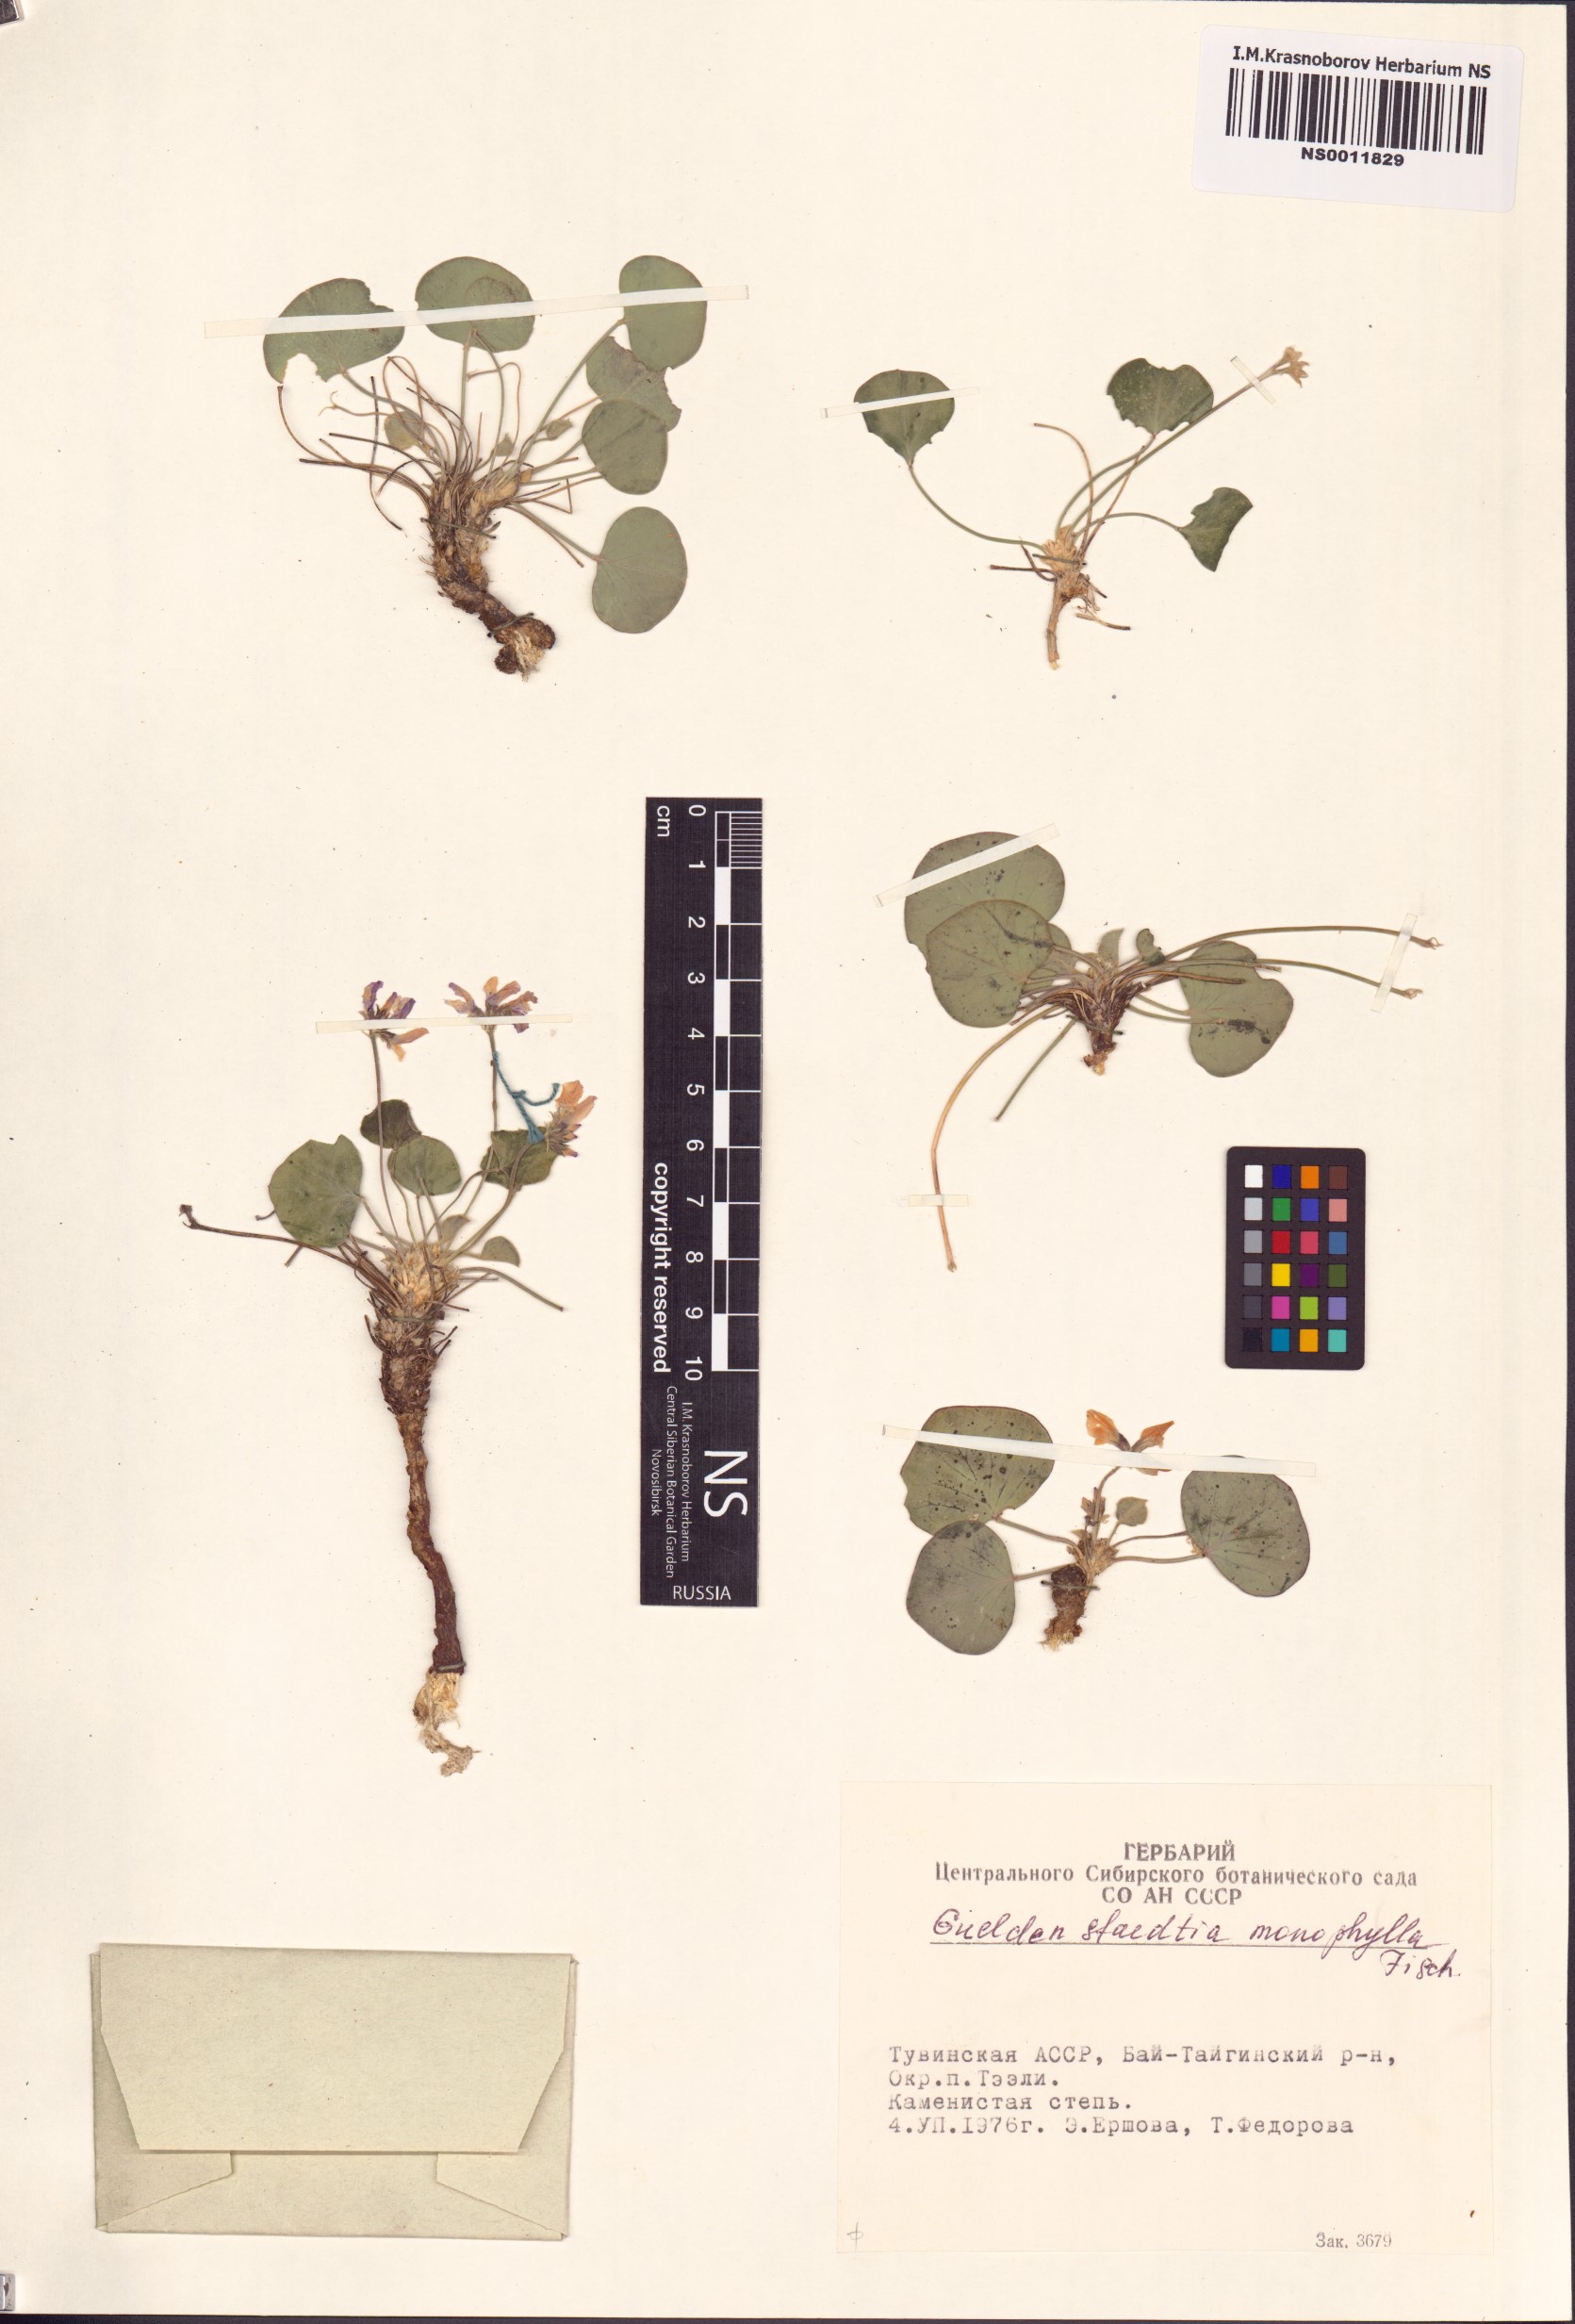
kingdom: Plantae
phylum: Tracheophyta
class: Magnoliopsida
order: Fabales
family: Fabaceae
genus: Gueldenstaedtia
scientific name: Gueldenstaedtia monophylla
